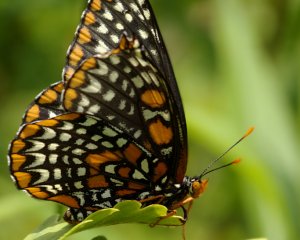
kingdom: Animalia
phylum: Arthropoda
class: Insecta
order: Lepidoptera
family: Nymphalidae
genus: Euphydryas
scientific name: Euphydryas phaeton
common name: Baltimore Checkerspot
